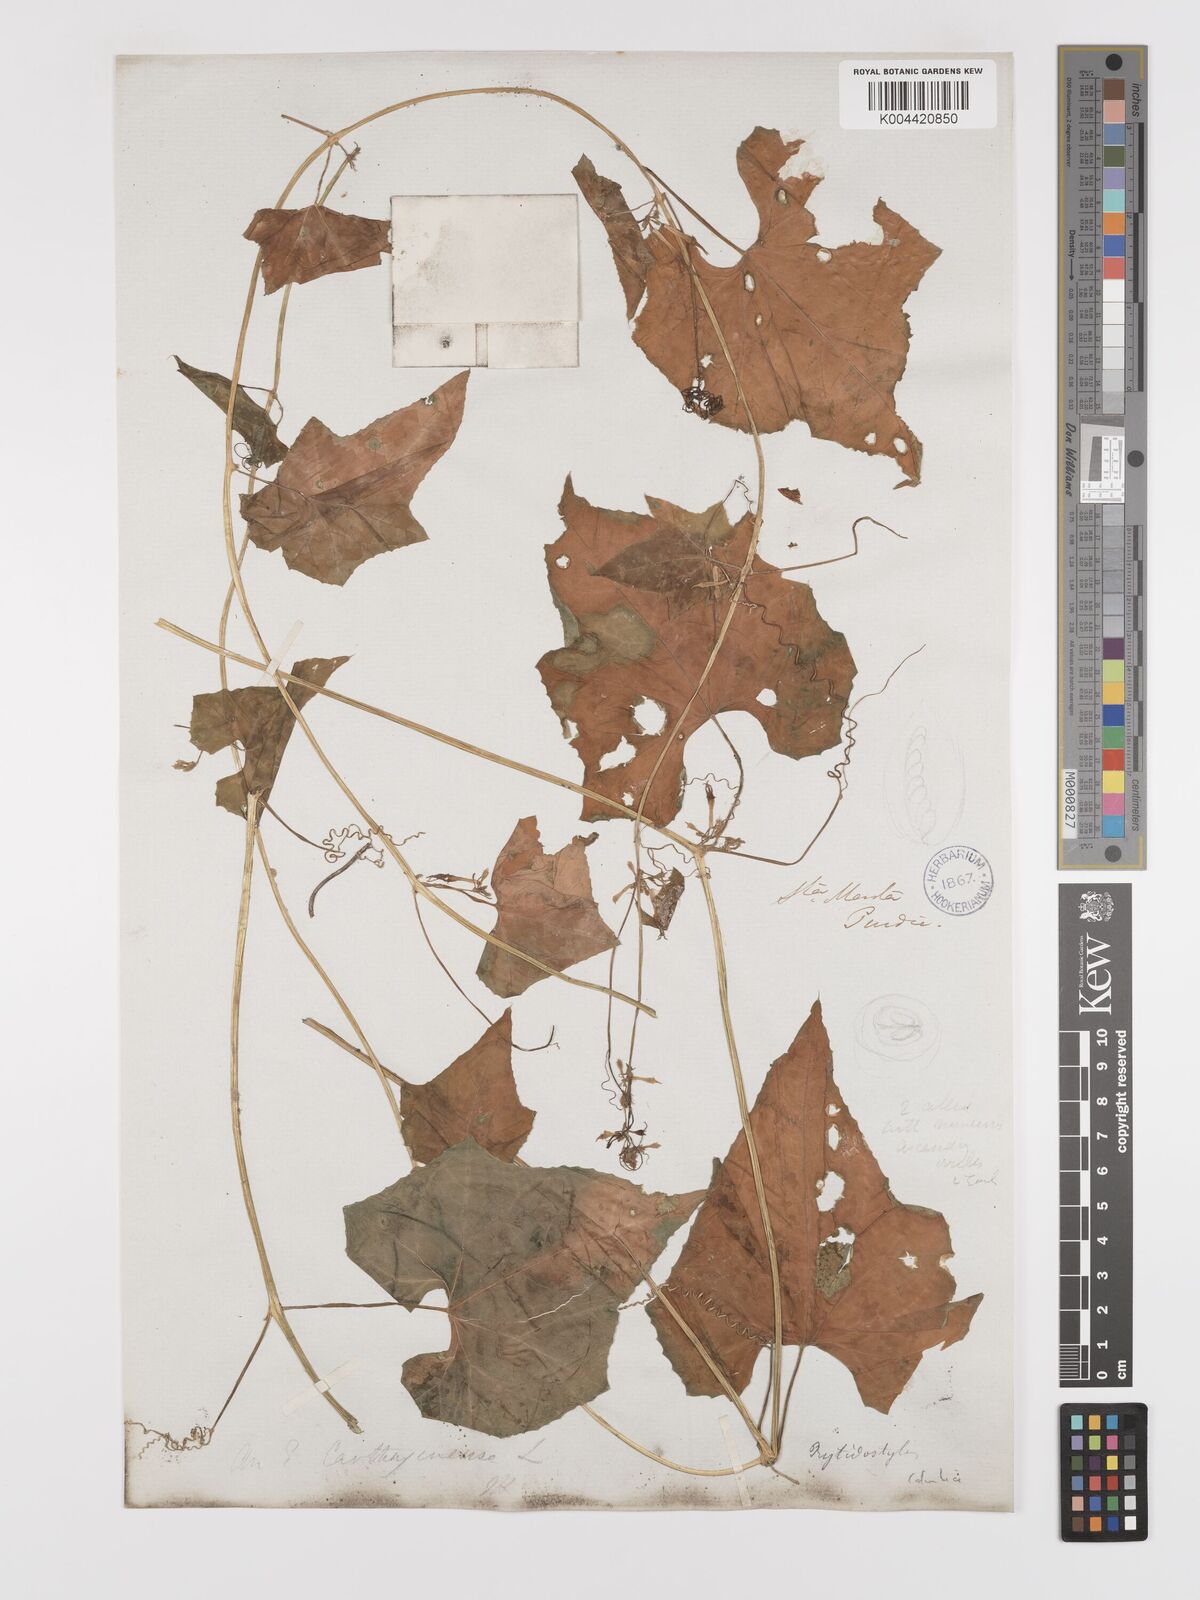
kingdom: Plantae
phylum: Tracheophyta
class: Magnoliopsida
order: Cucurbitales
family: Cucurbitaceae
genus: Cyclanthera
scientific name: Cyclanthera carthagenensis
